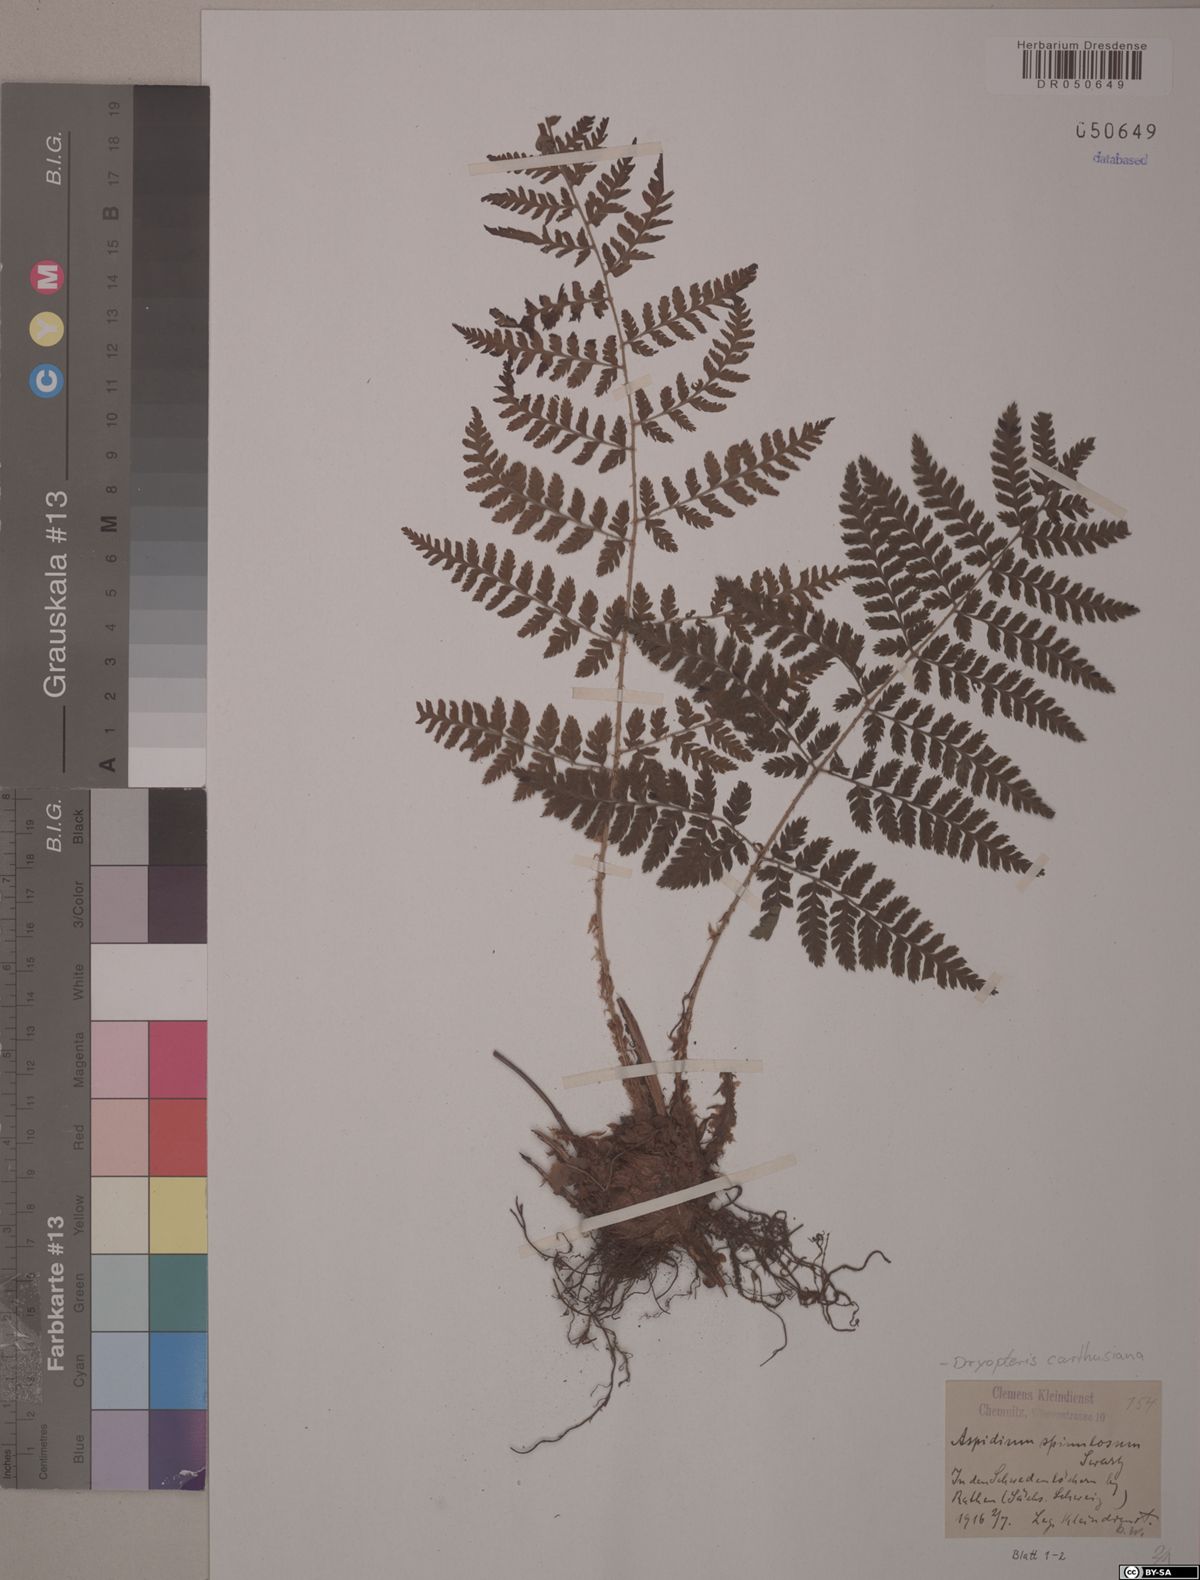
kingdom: Plantae
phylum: Tracheophyta
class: Polypodiopsida
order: Polypodiales
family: Dryopteridaceae
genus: Dryopteris
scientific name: Dryopteris carthusiana
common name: Narrow buckler-fern
